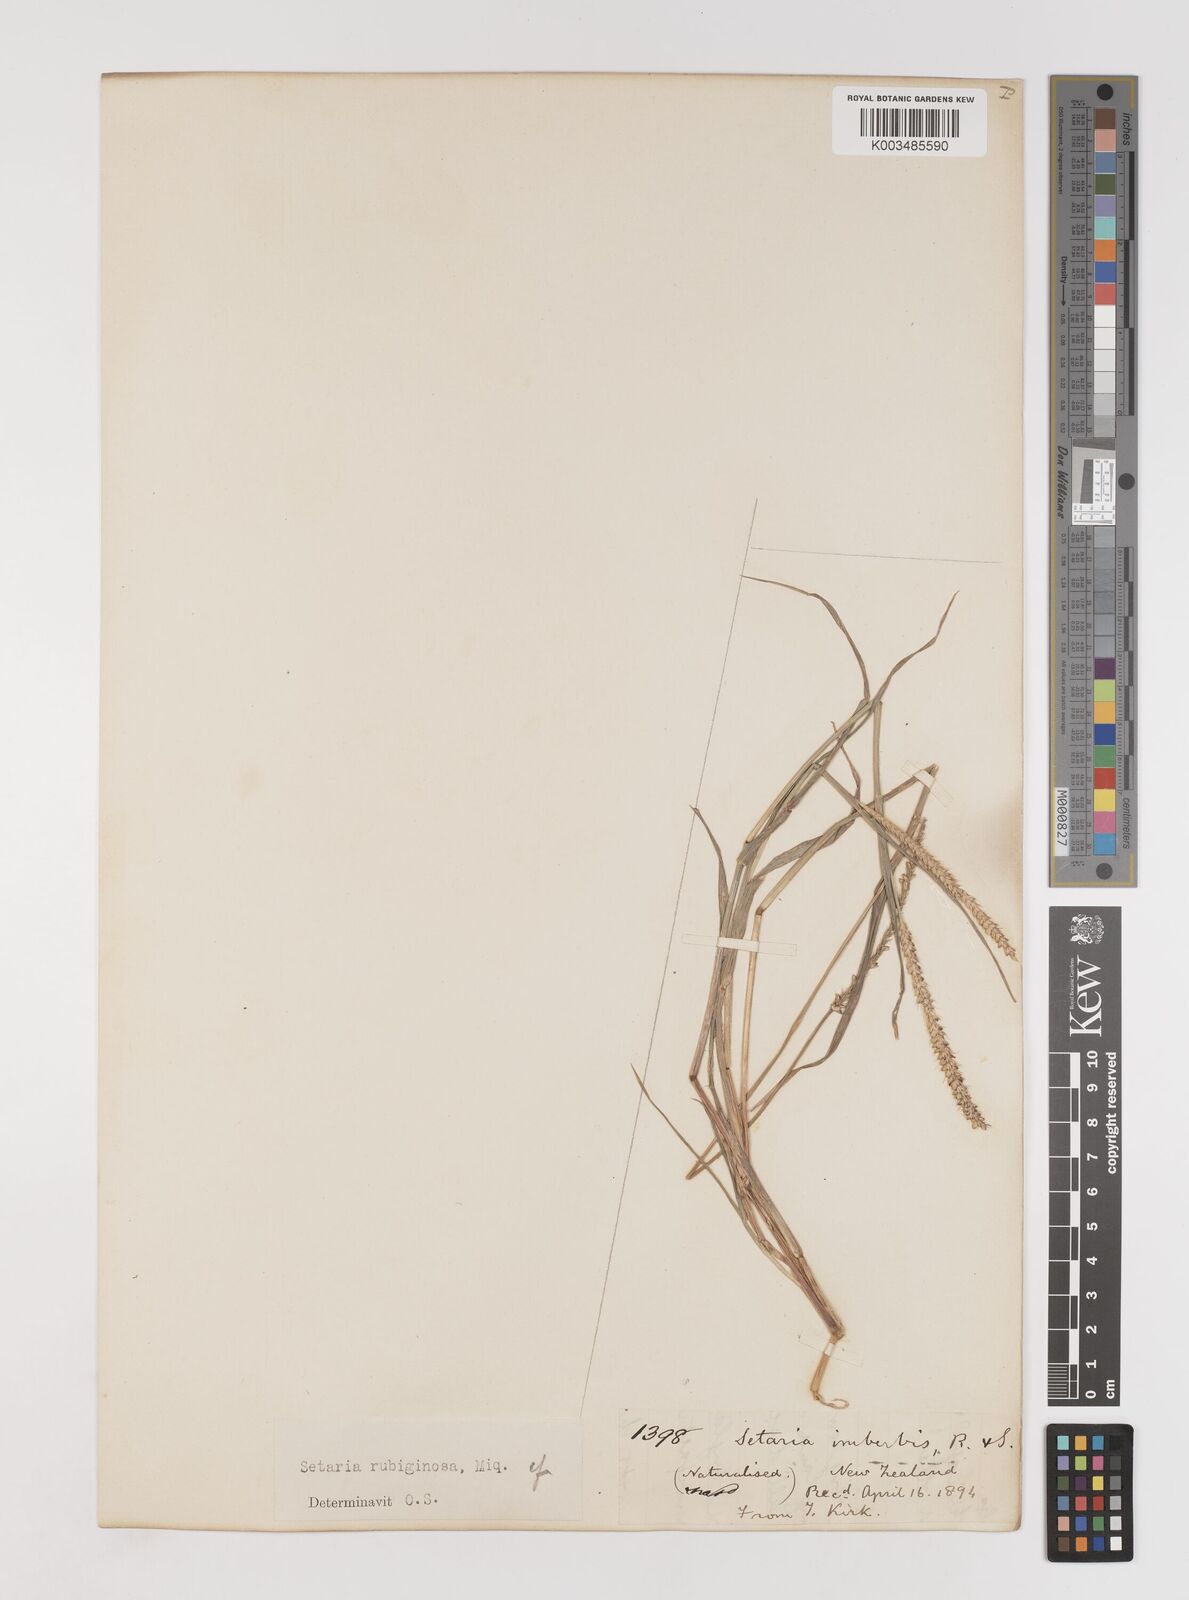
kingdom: Plantae
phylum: Tracheophyta
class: Liliopsida
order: Poales
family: Poaceae
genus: Setaria
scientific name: Setaria pumila
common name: Yellow bristle-grass
